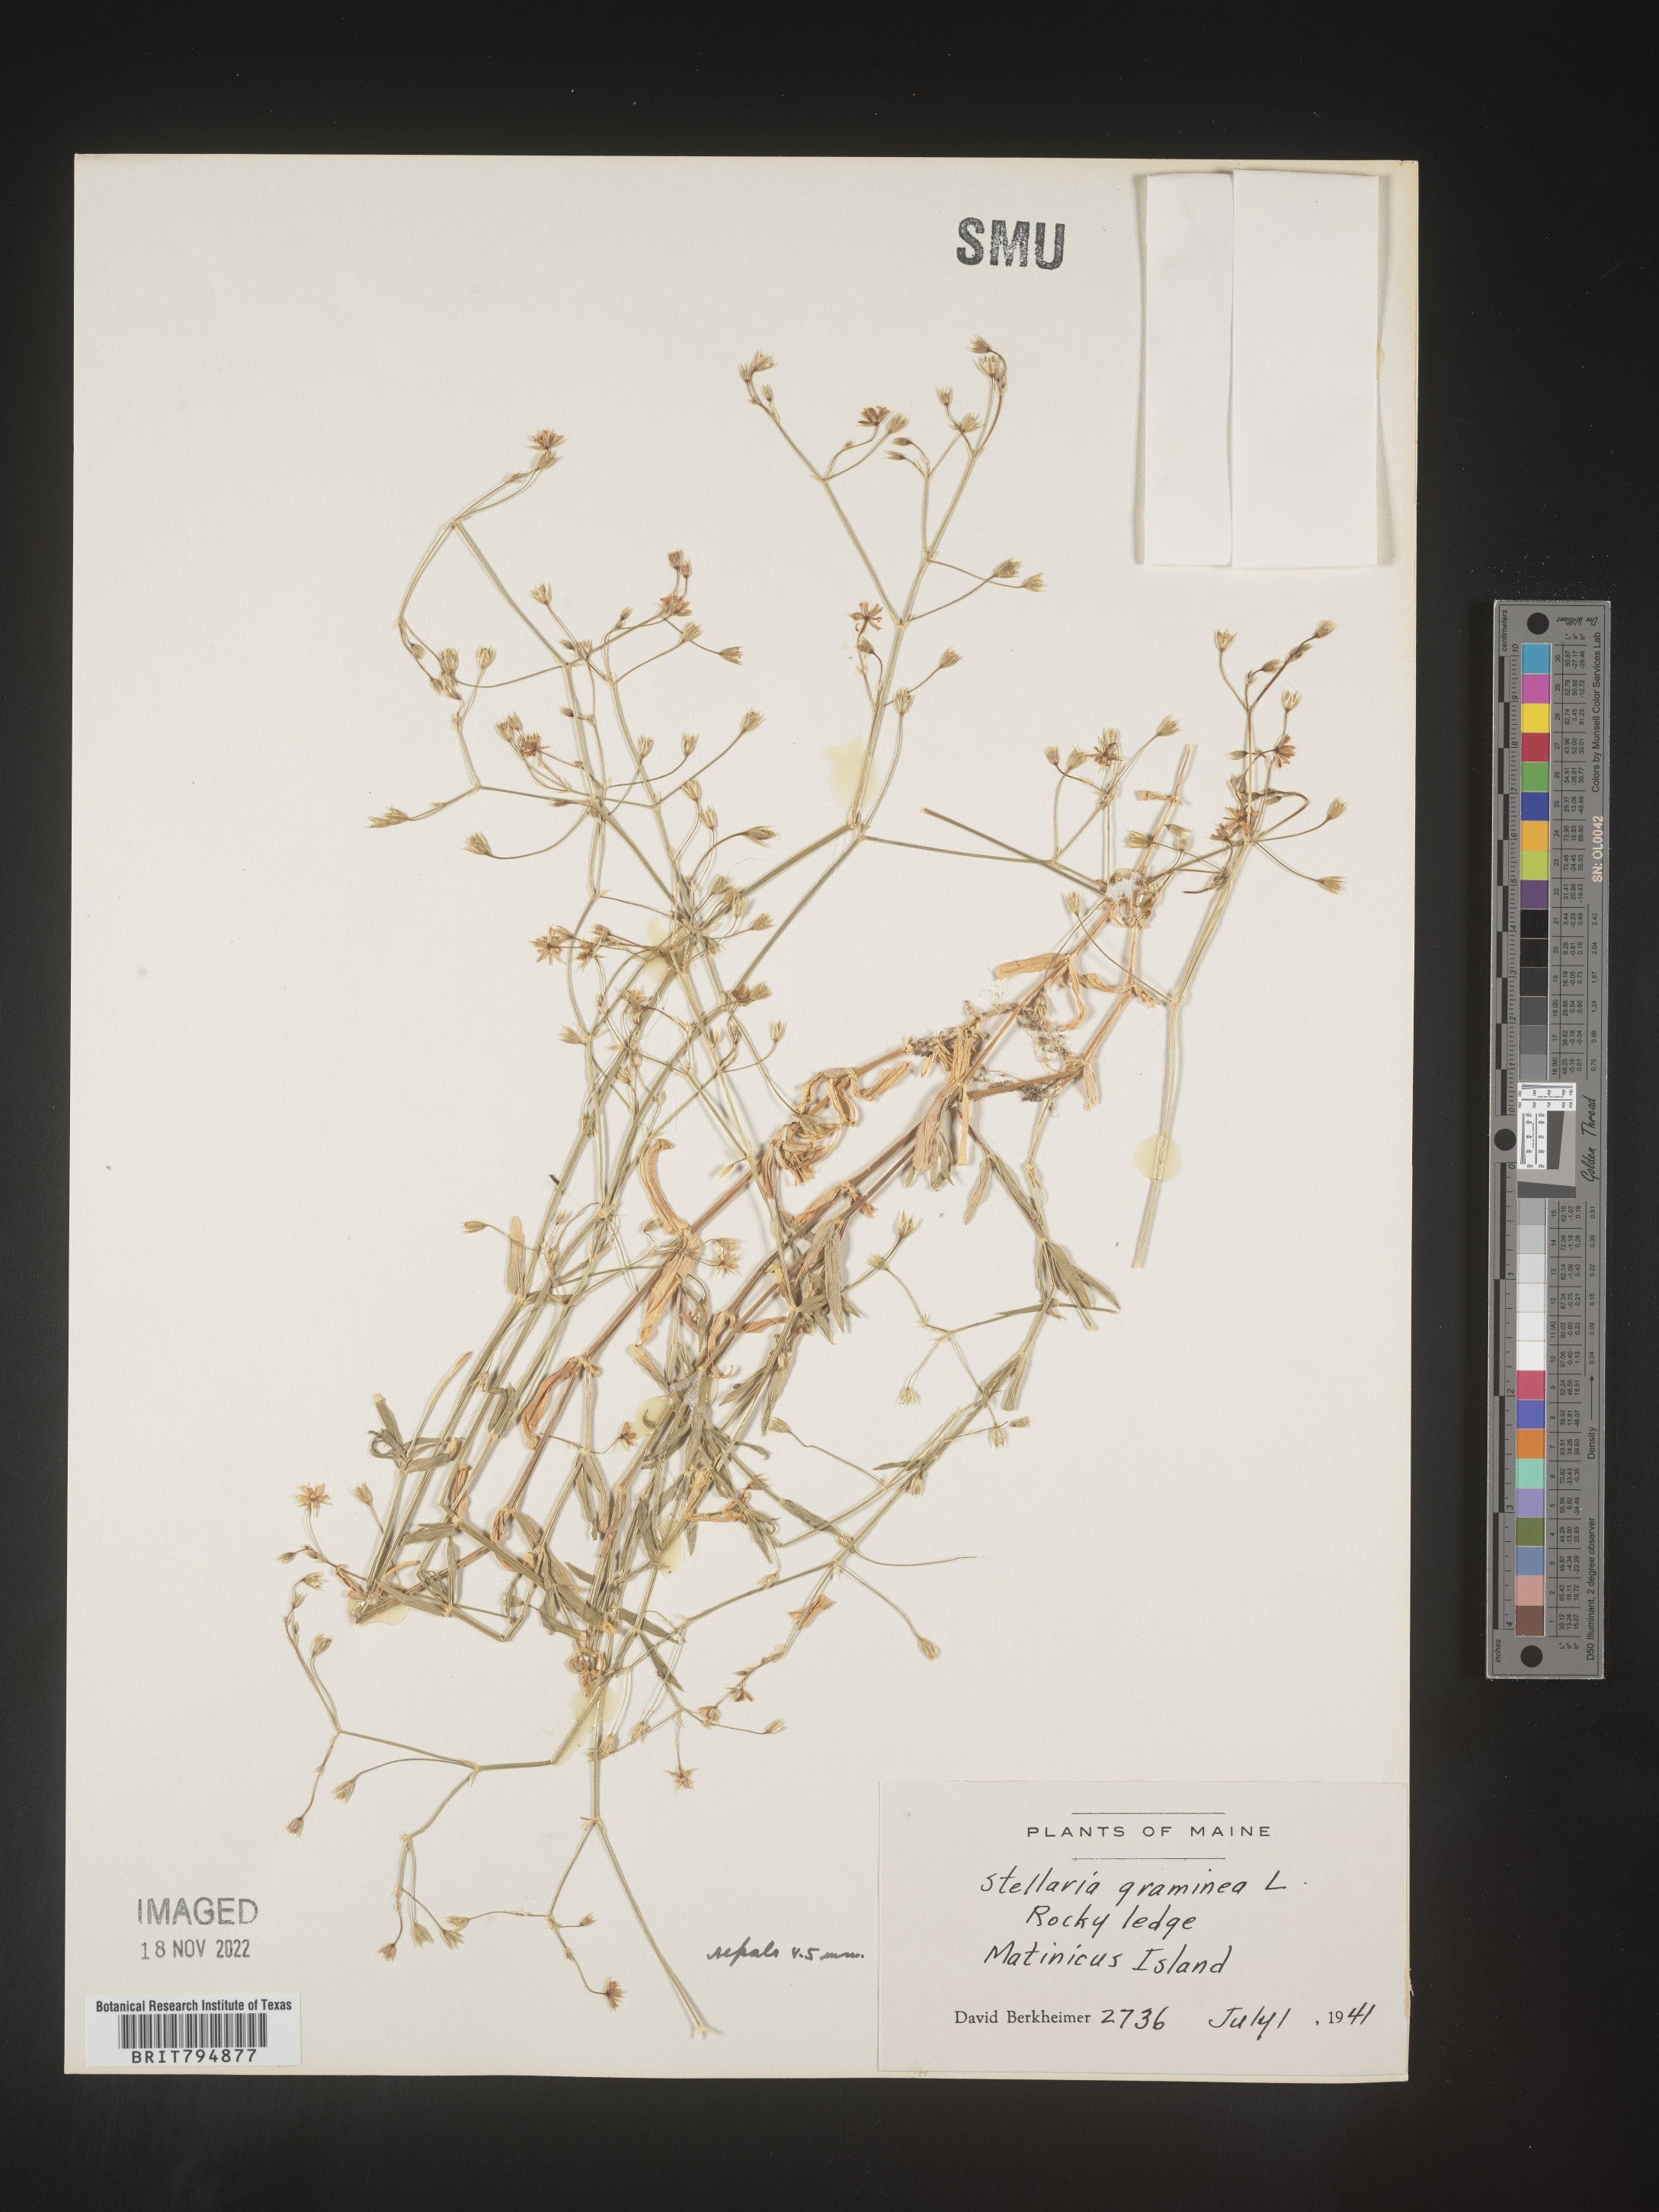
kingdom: Plantae
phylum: Tracheophyta
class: Magnoliopsida
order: Caryophyllales
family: Caryophyllaceae
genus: Stellaria
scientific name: Stellaria graminea
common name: Grass-like starwort
